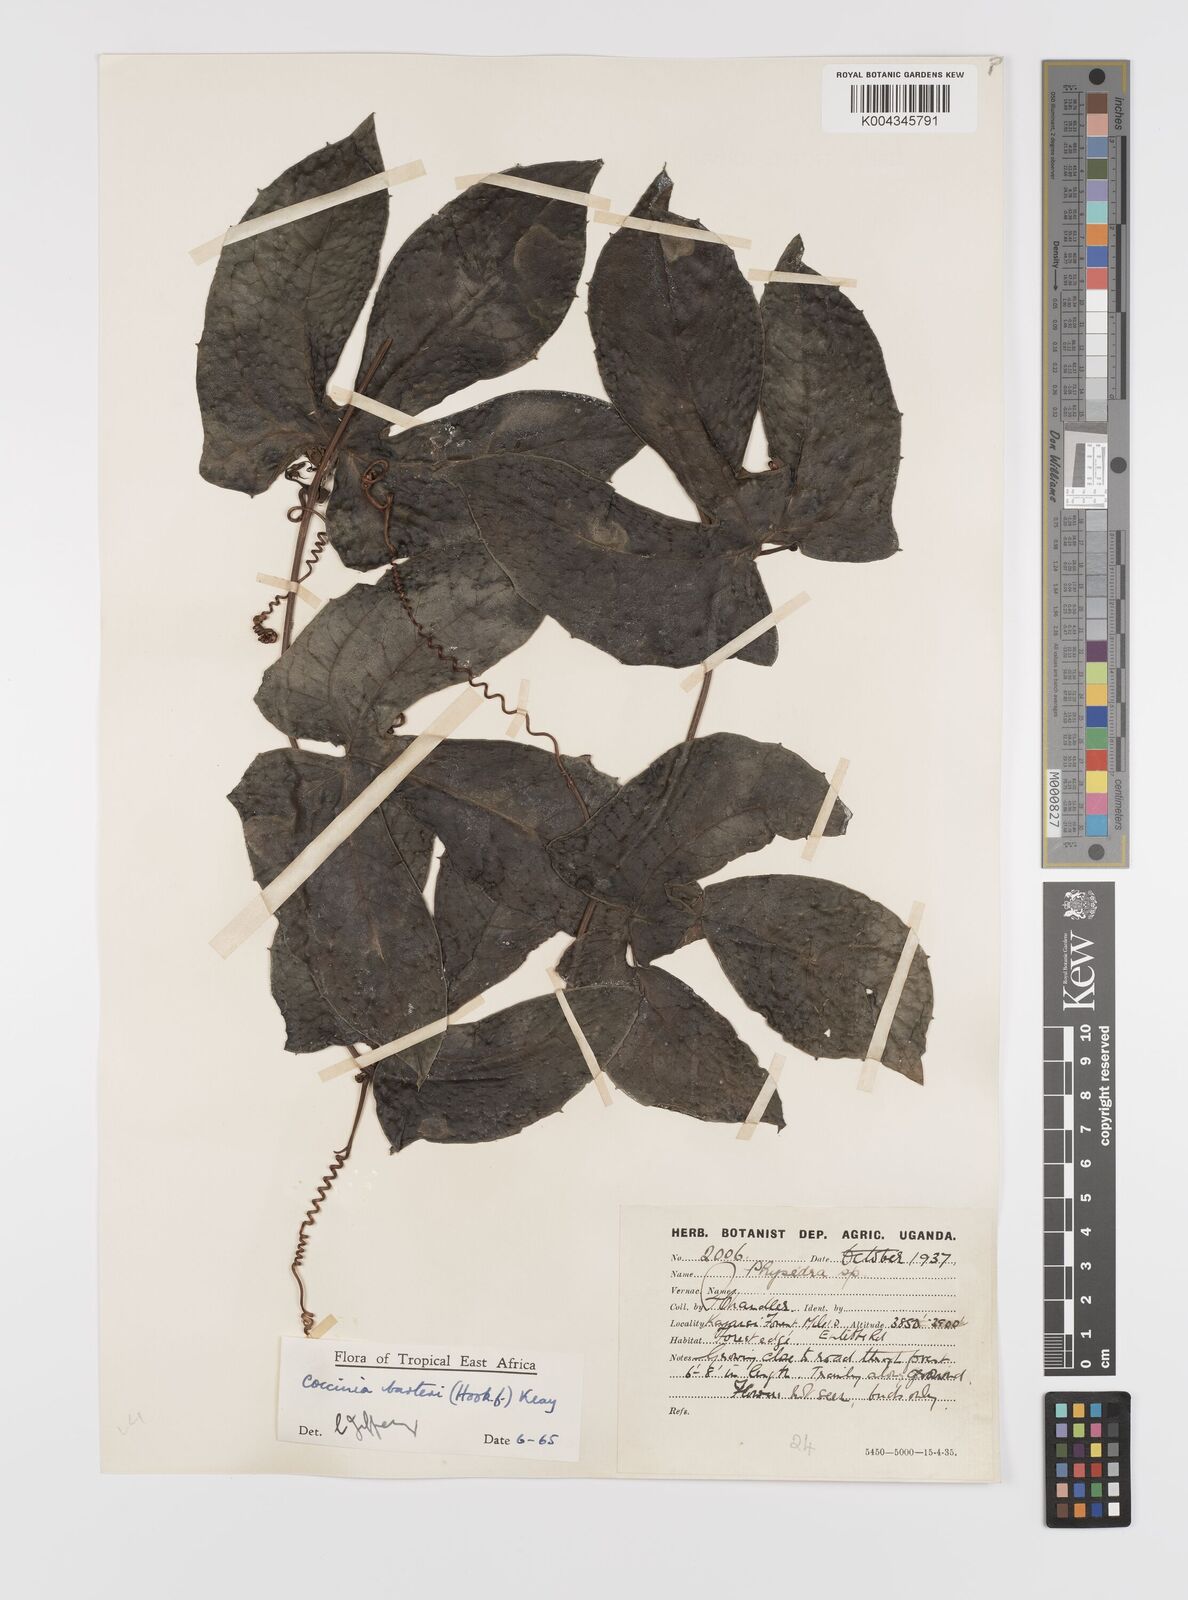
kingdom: Plantae
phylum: Tracheophyta
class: Magnoliopsida
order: Cucurbitales
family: Cucurbitaceae
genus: Coccinia
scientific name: Coccinia barteri
